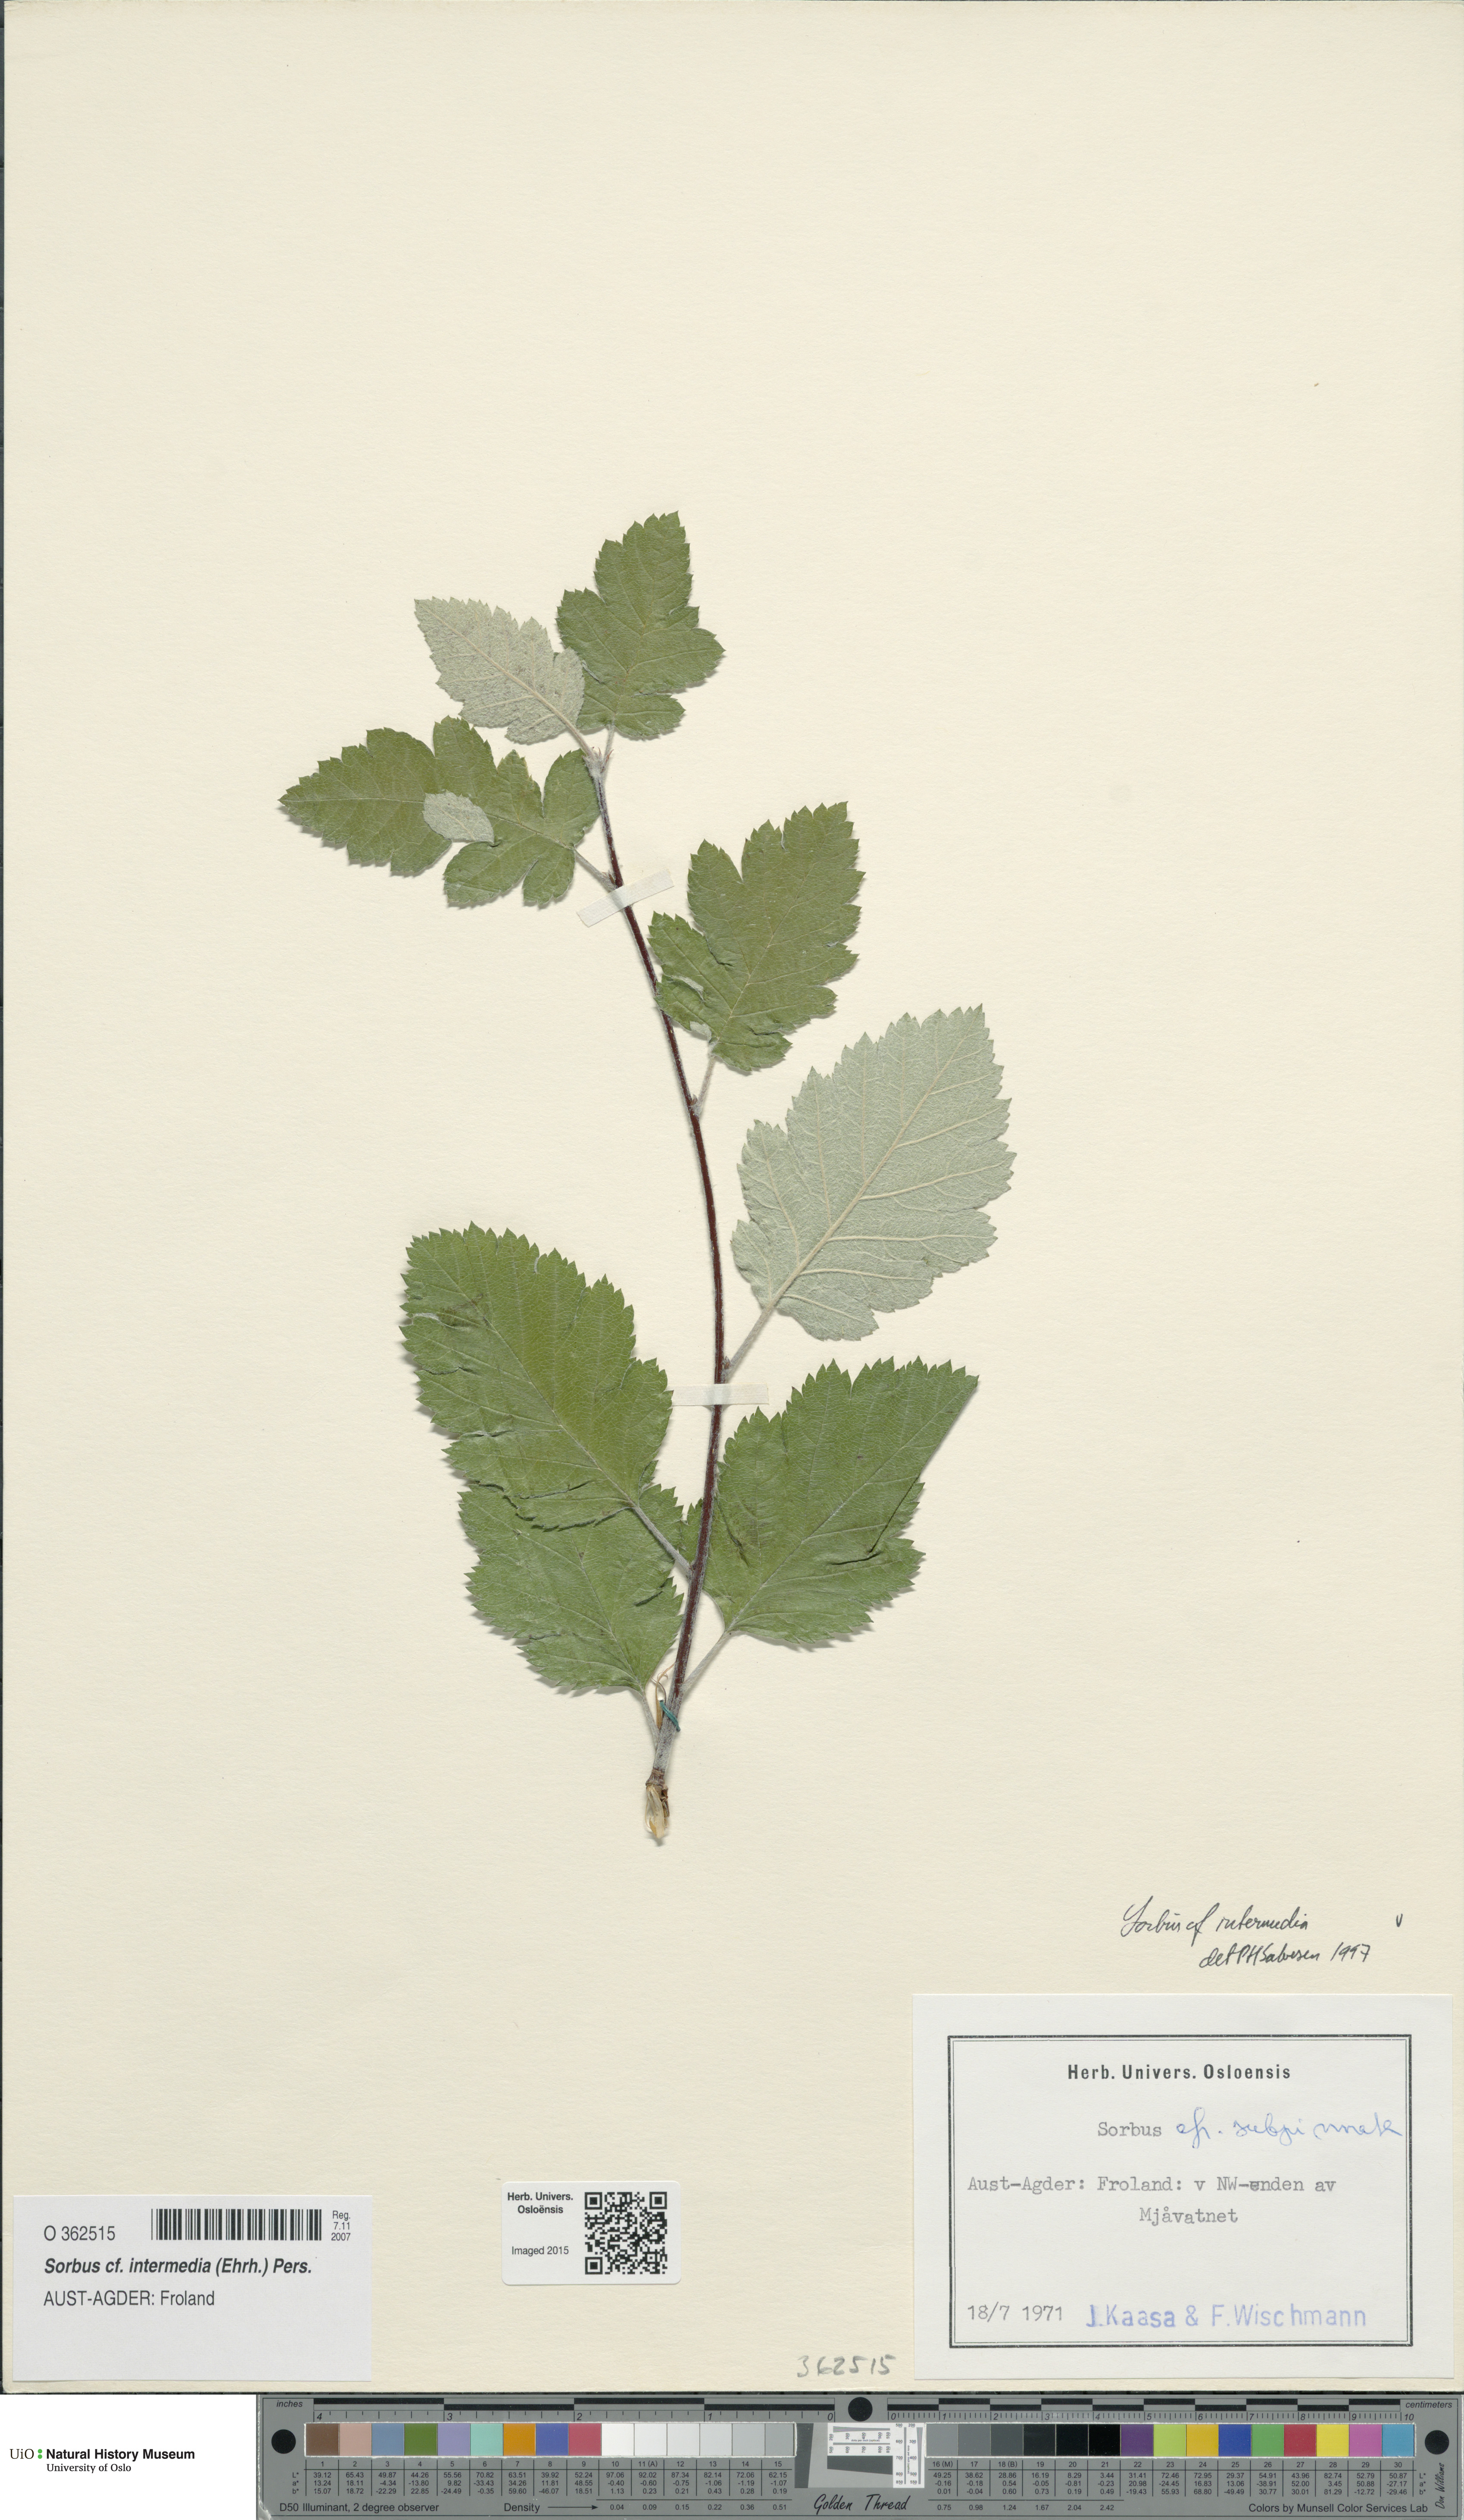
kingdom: Plantae
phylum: Tracheophyta
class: Magnoliopsida
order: Rosales
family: Rosaceae
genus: Scandosorbus
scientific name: Scandosorbus intermedia
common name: Swedish whitebeam
